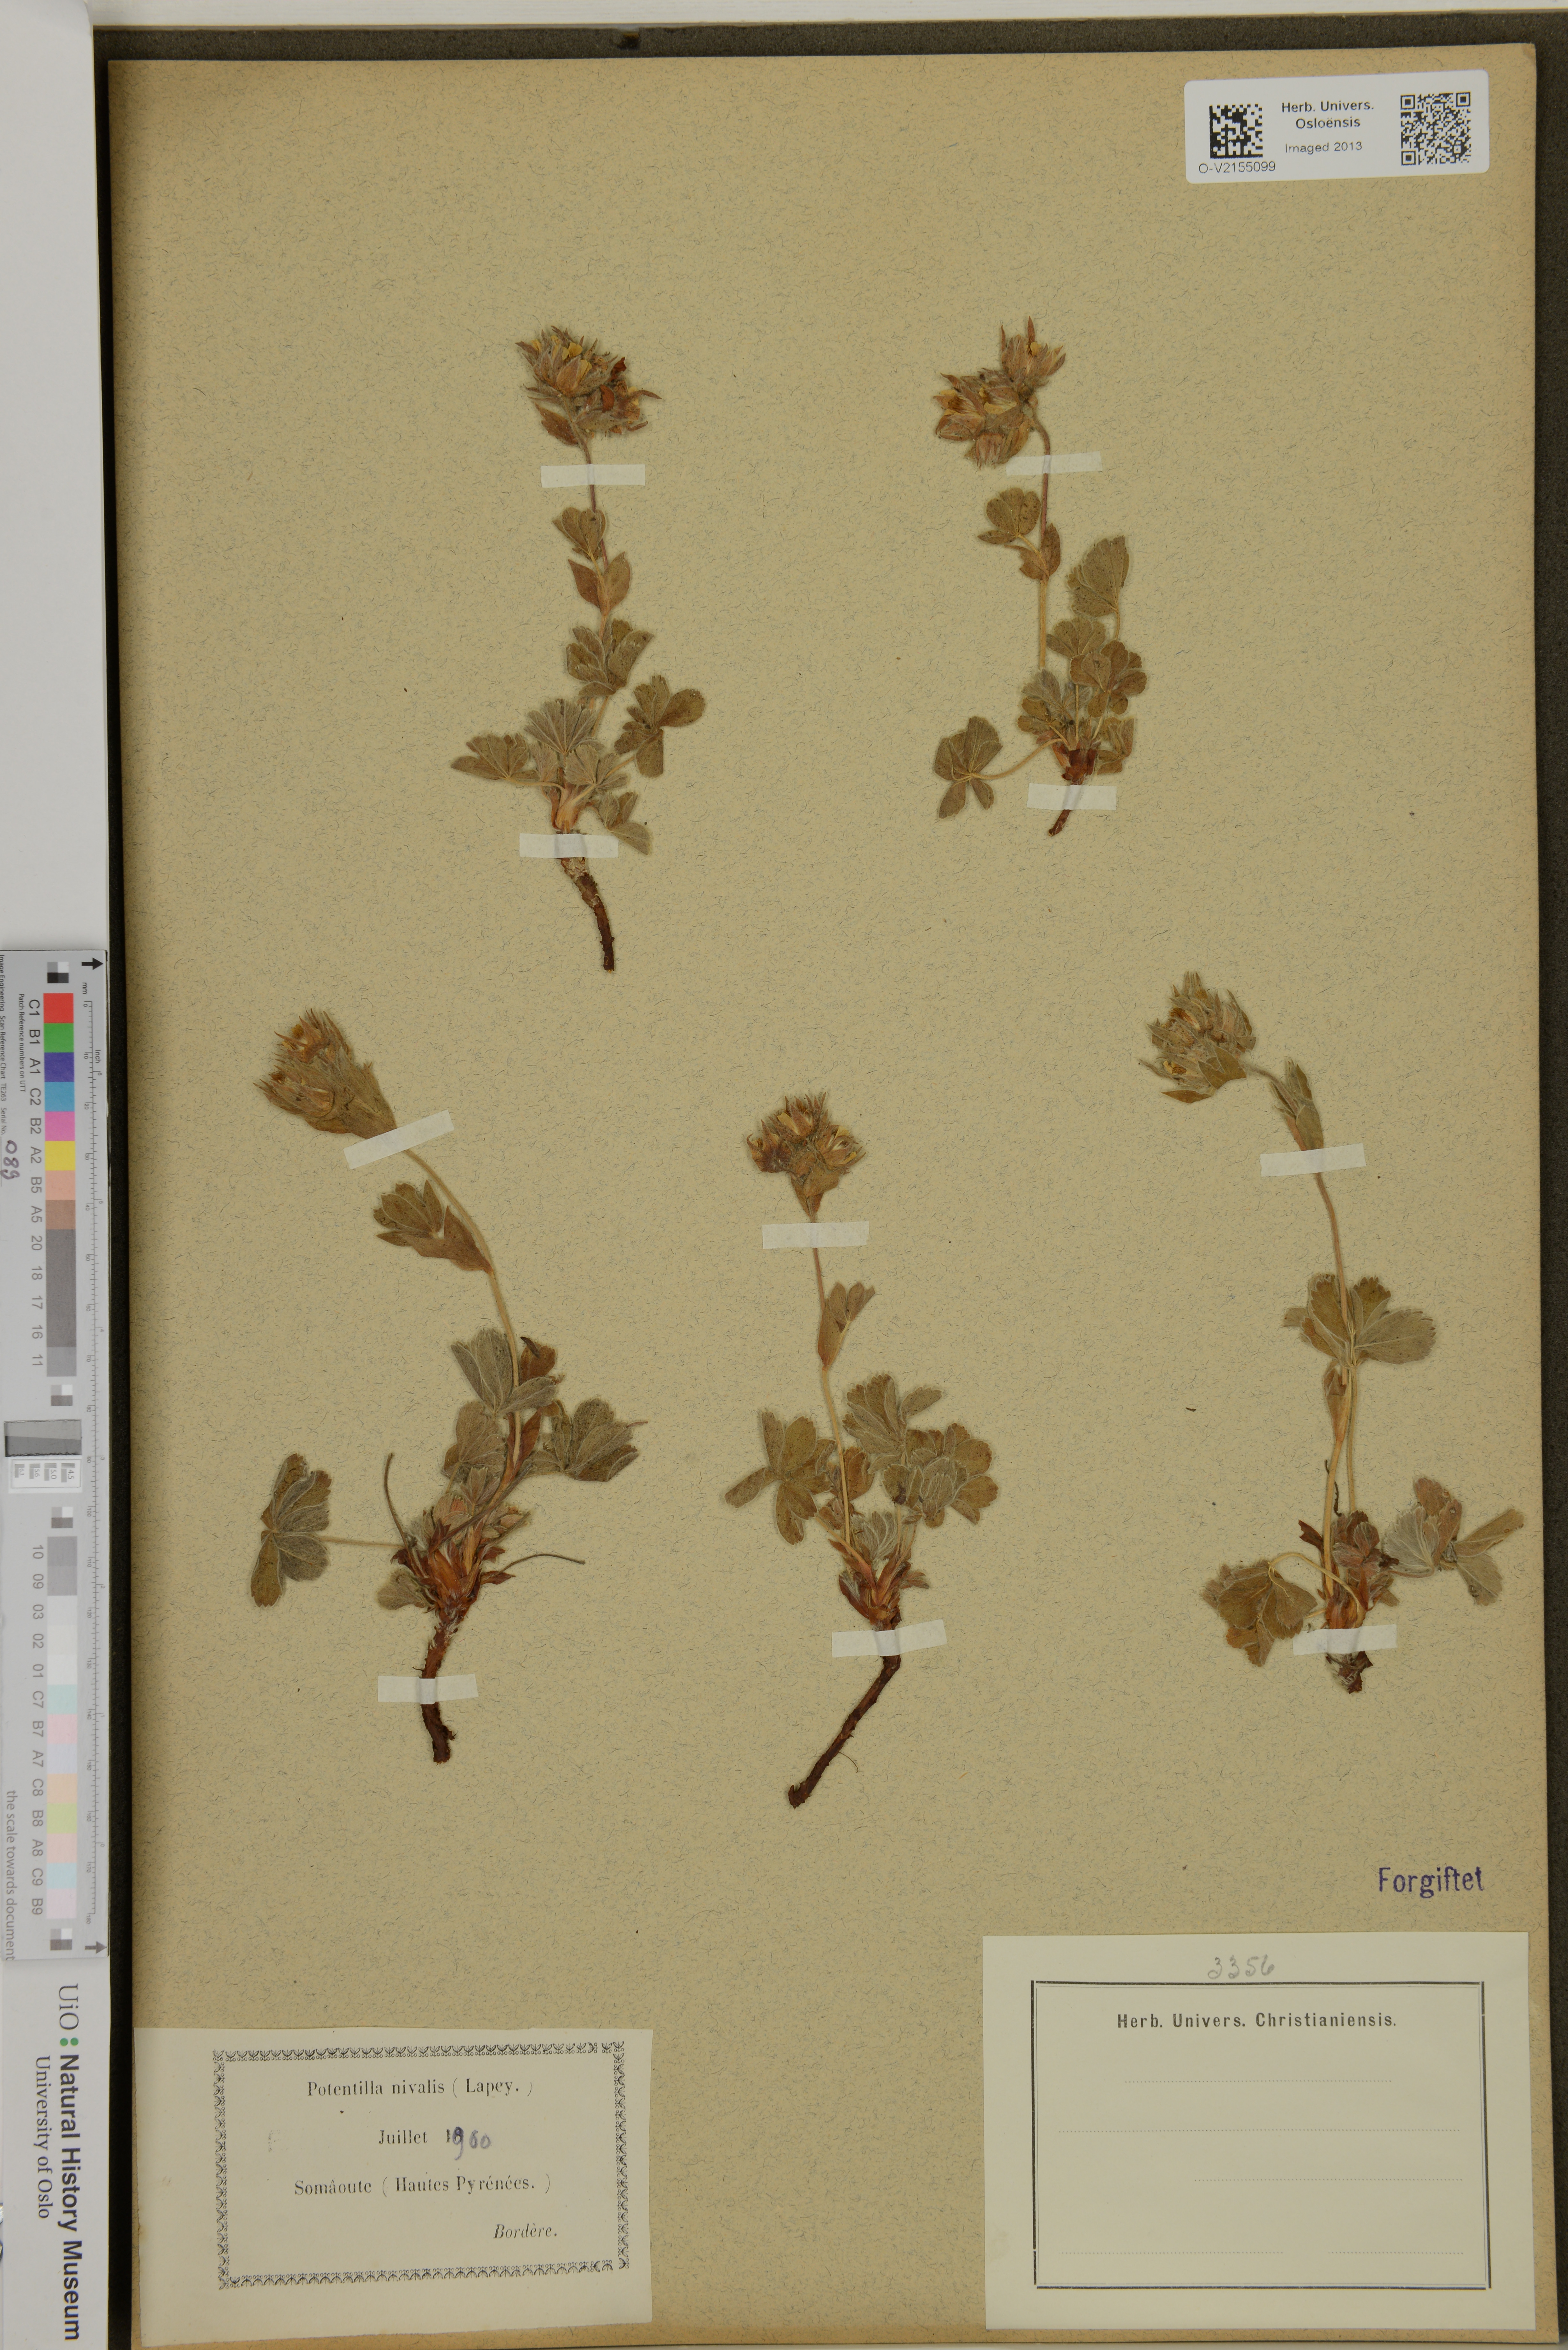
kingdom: Plantae
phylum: Tracheophyta
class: Magnoliopsida
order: Rosales
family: Rosaceae
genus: Potentilla
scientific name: Potentilla nivalis
